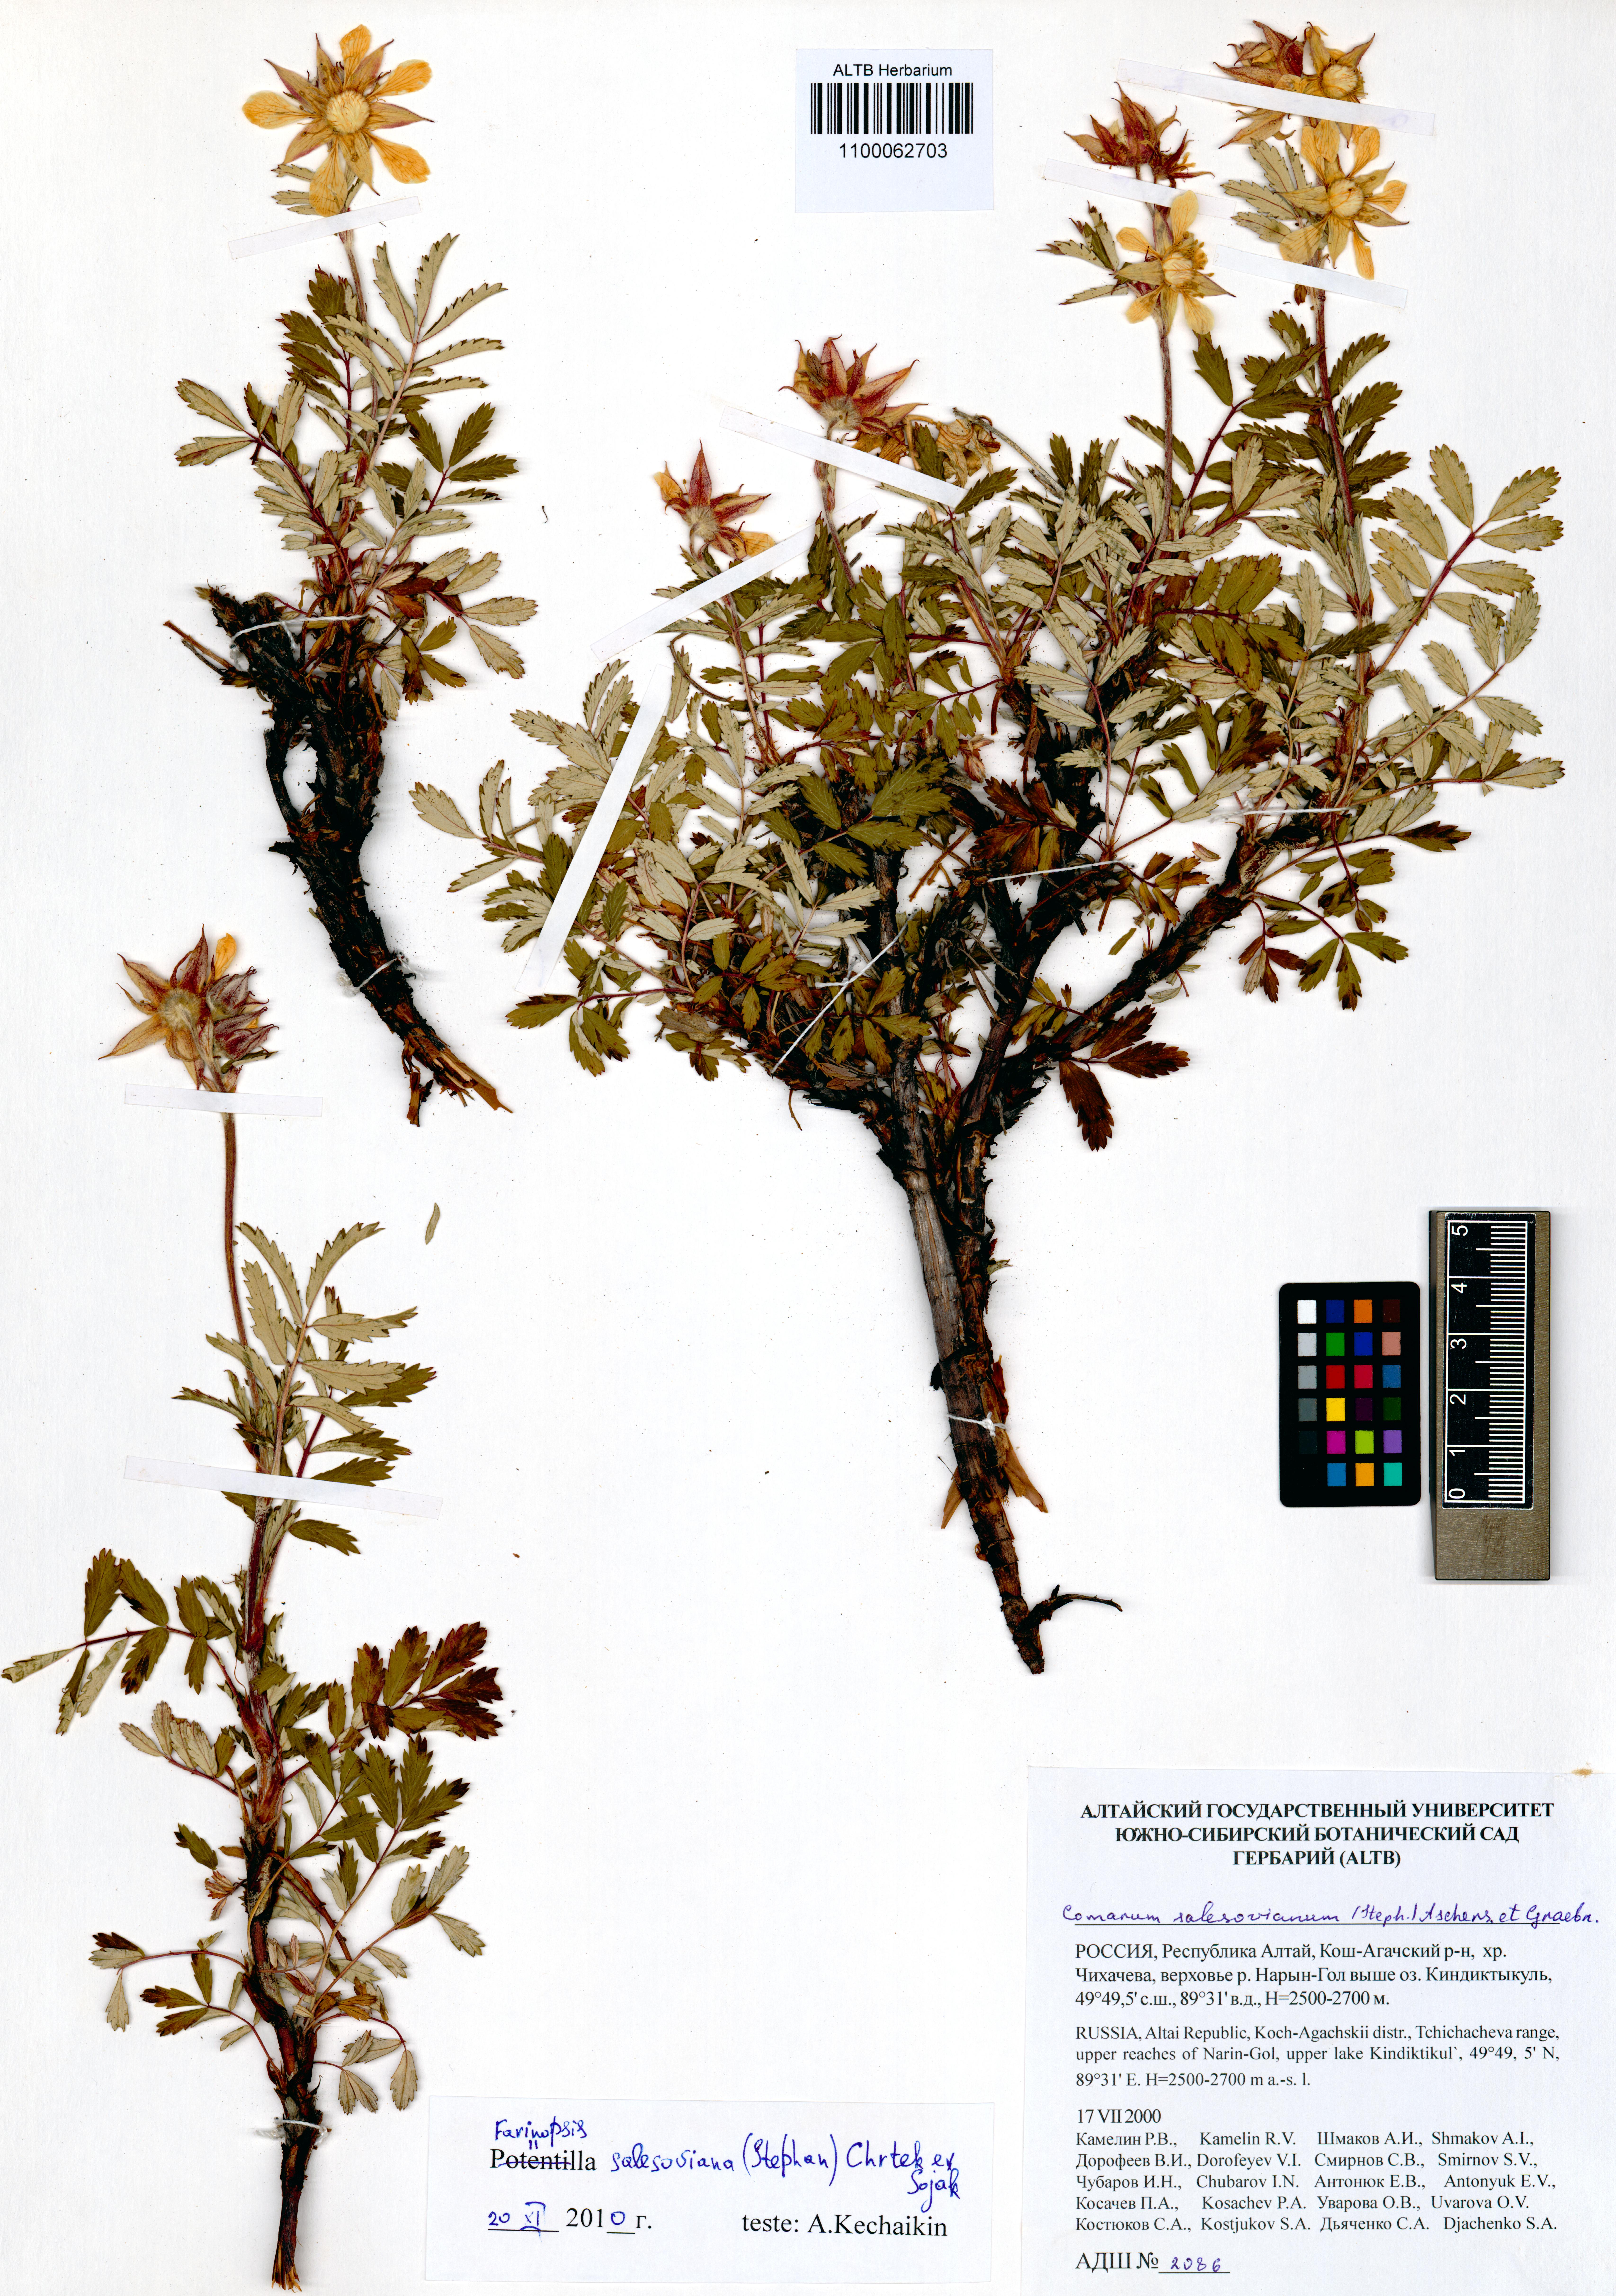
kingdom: Plantae
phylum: Tracheophyta
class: Magnoliopsida
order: Rosales
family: Rosaceae
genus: Farinopsis
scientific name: Farinopsis salesoviana
